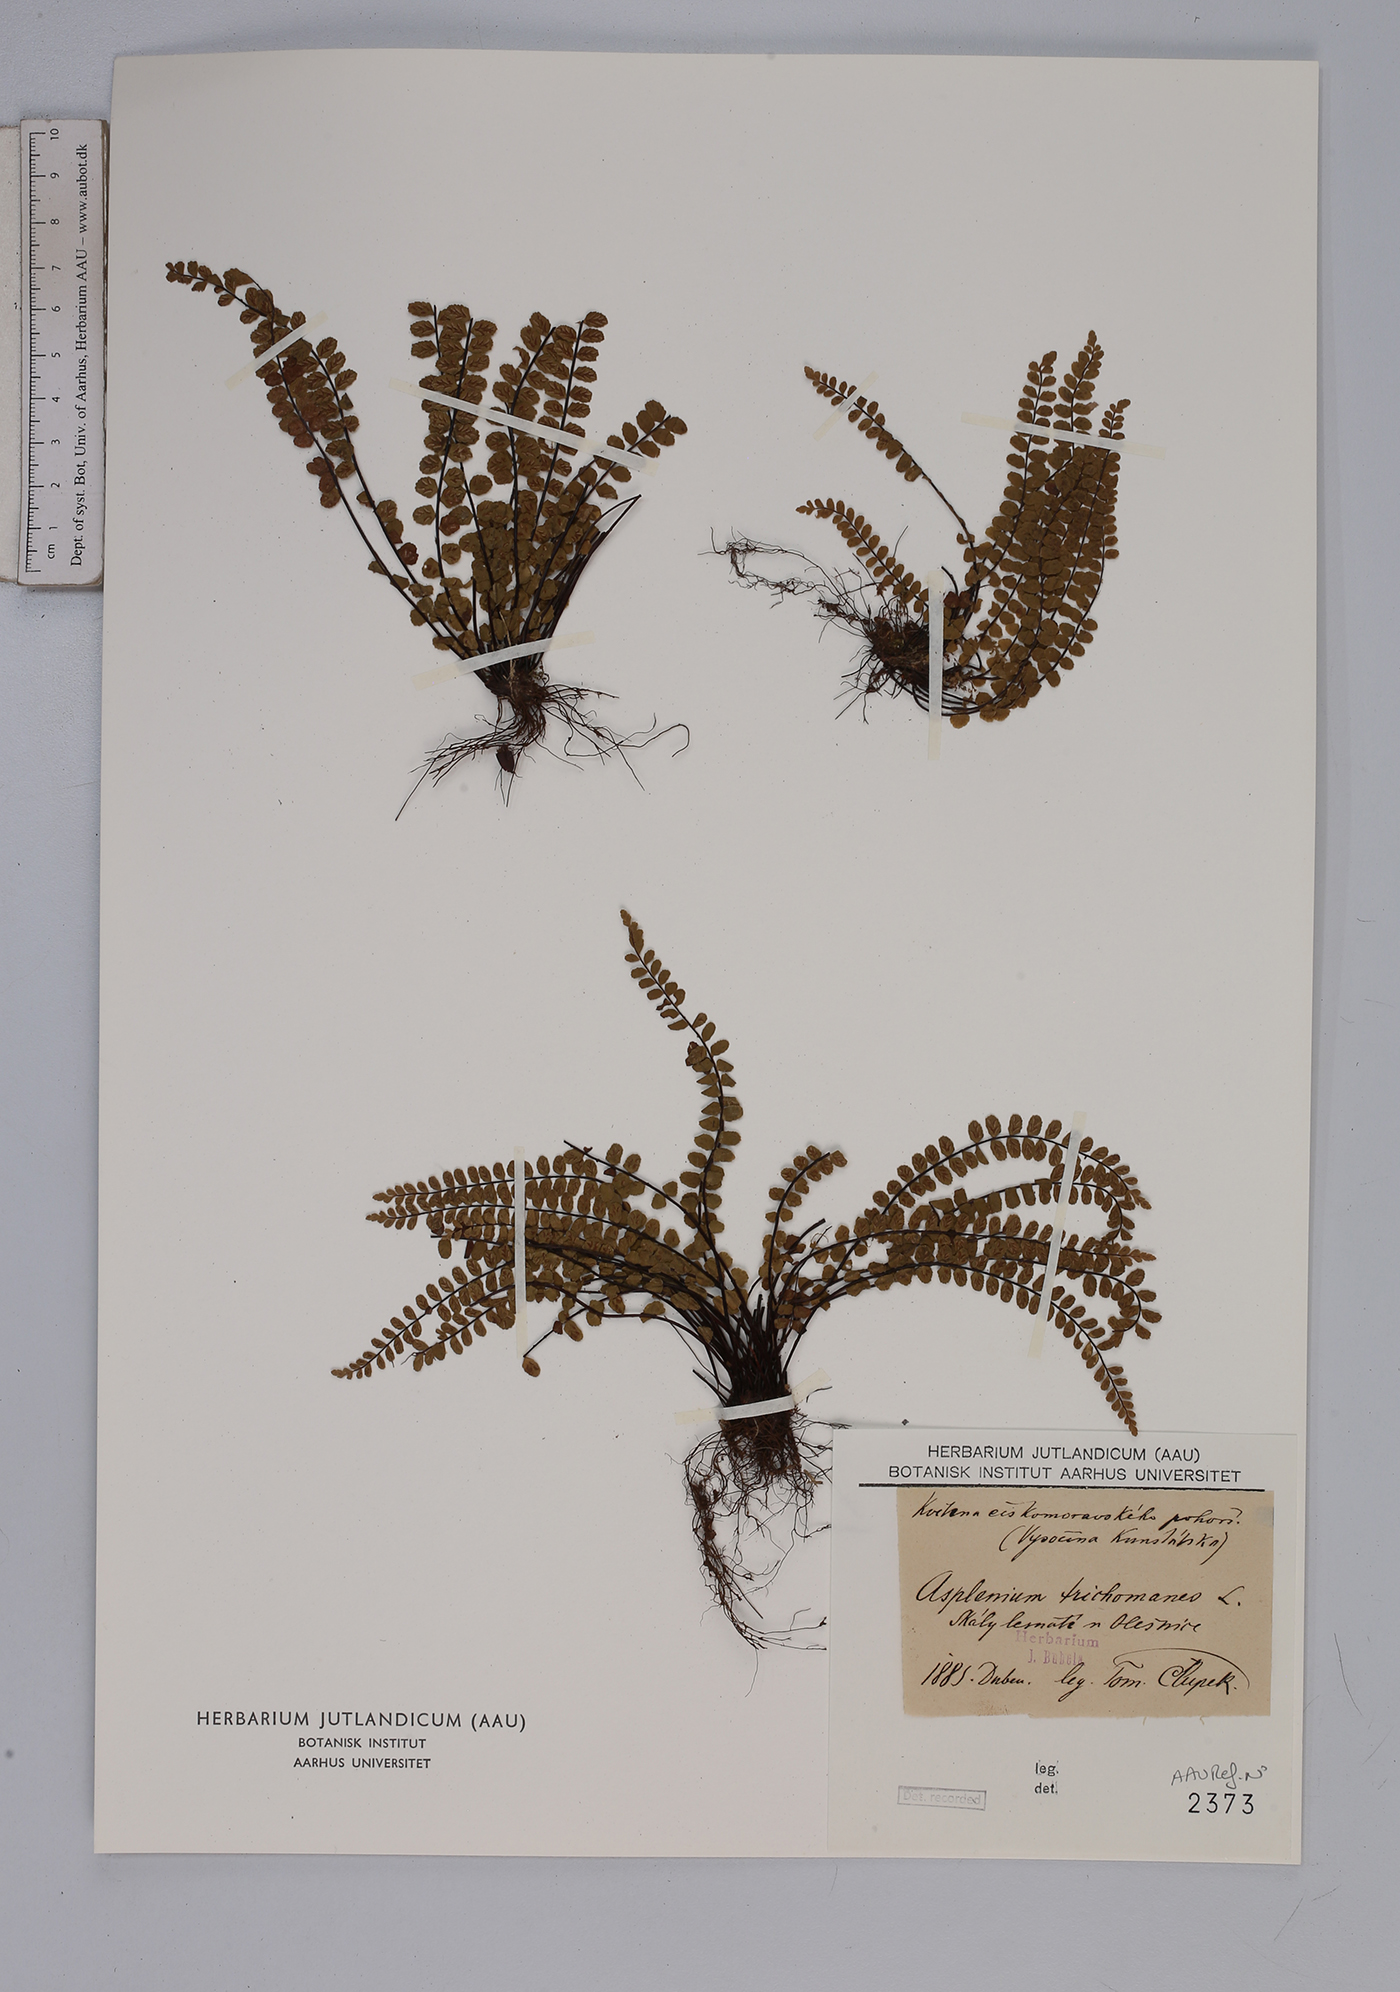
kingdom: Plantae
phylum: Tracheophyta
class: Polypodiopsida
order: Polypodiales
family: Aspleniaceae
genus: Asplenium
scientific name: Asplenium trichomanes
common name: Maidenhair spleenwort
